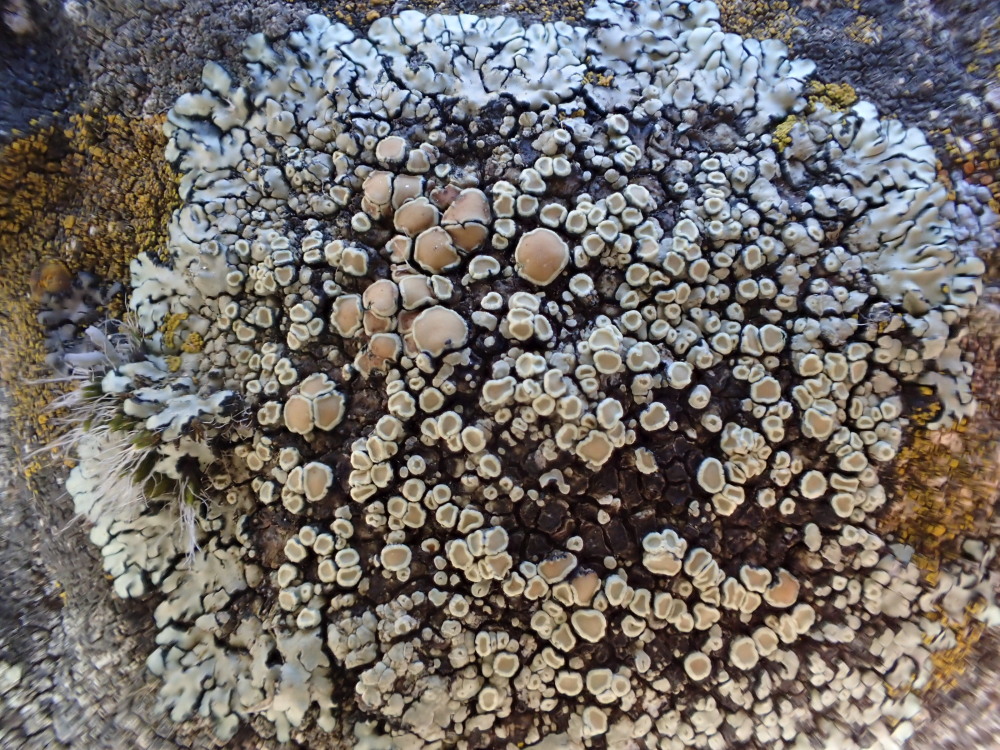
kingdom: Fungi
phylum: Ascomycota
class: Lecanoromycetes
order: Lecanorales
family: Lecanoraceae
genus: Protoparmeliopsis
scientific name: Protoparmeliopsis muralis
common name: randfliget kantskivelav
